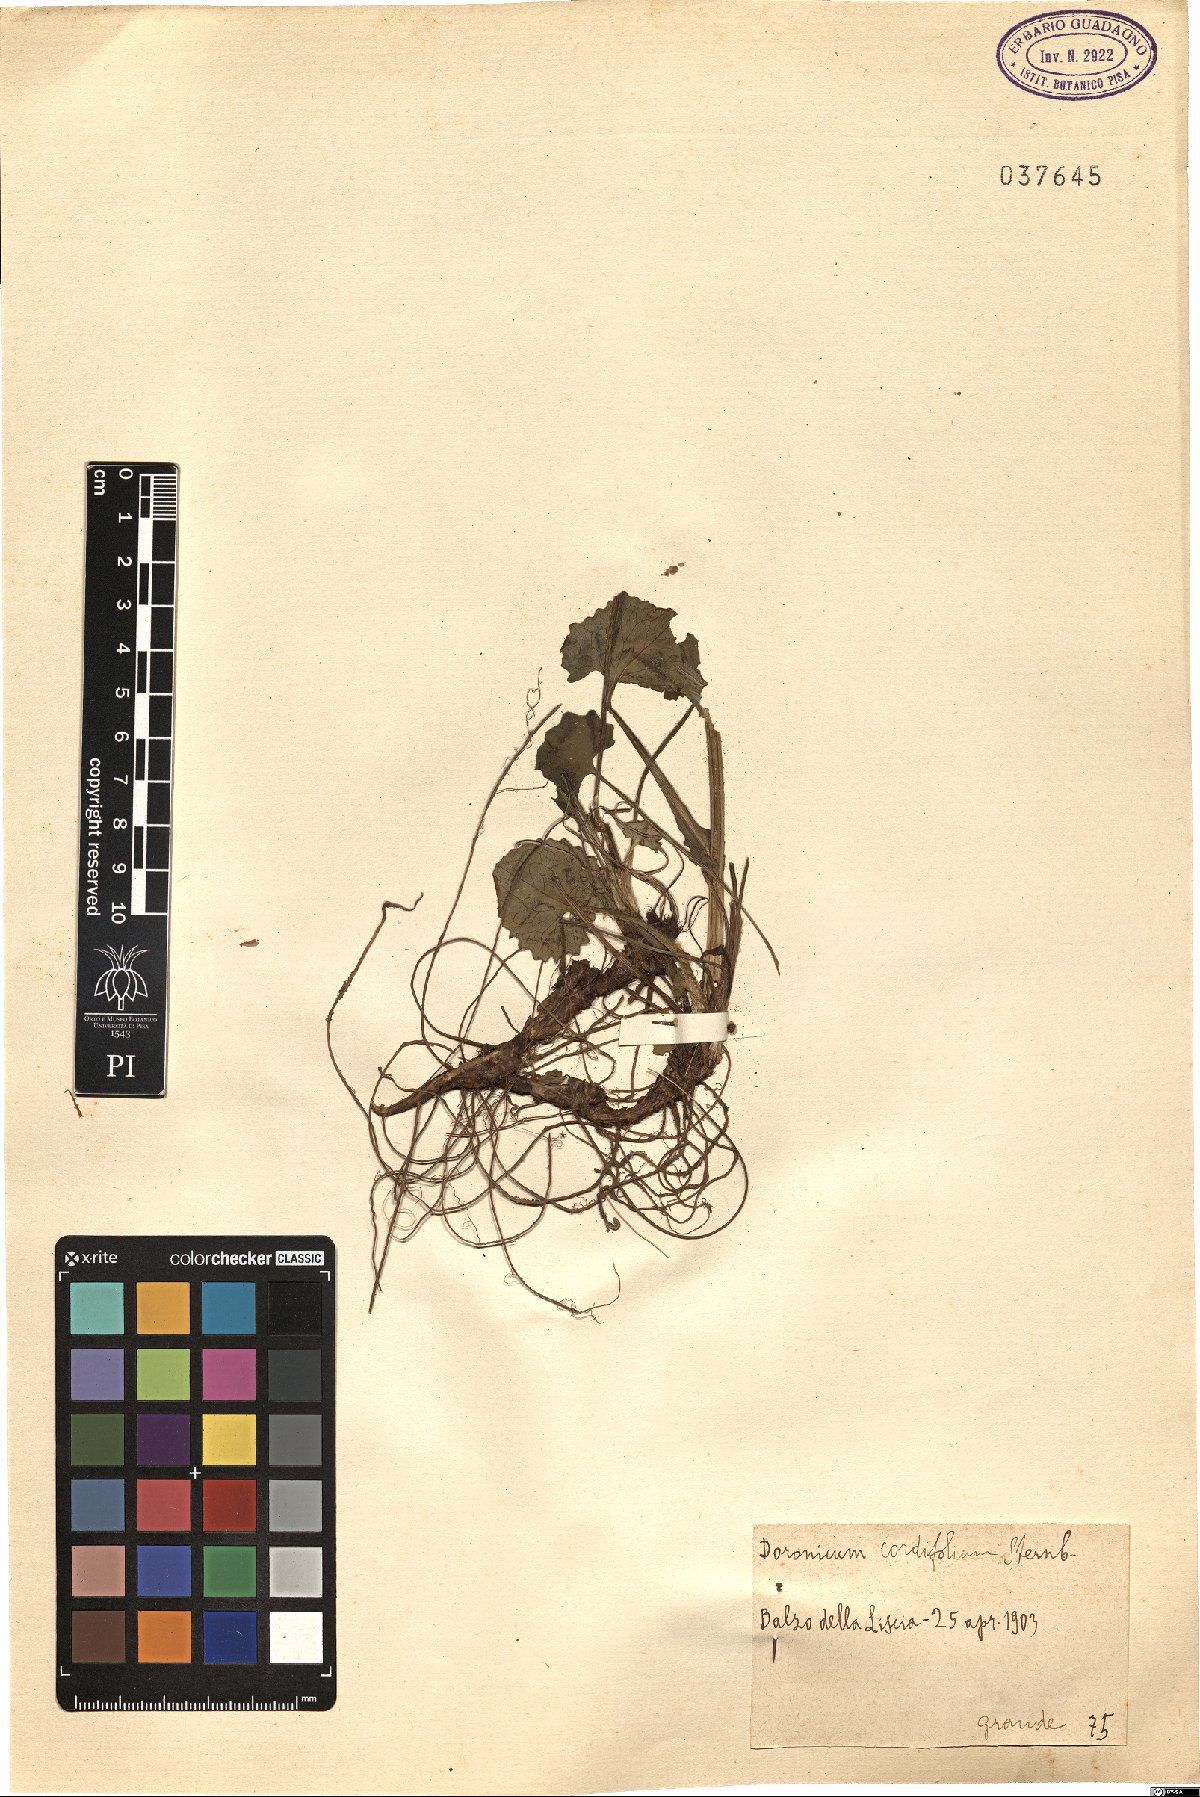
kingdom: Plantae
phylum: Tracheophyta
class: Magnoliopsida
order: Asterales
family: Asteraceae
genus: Doronicum
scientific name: Doronicum columnae
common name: Eastern leopard's-bane
